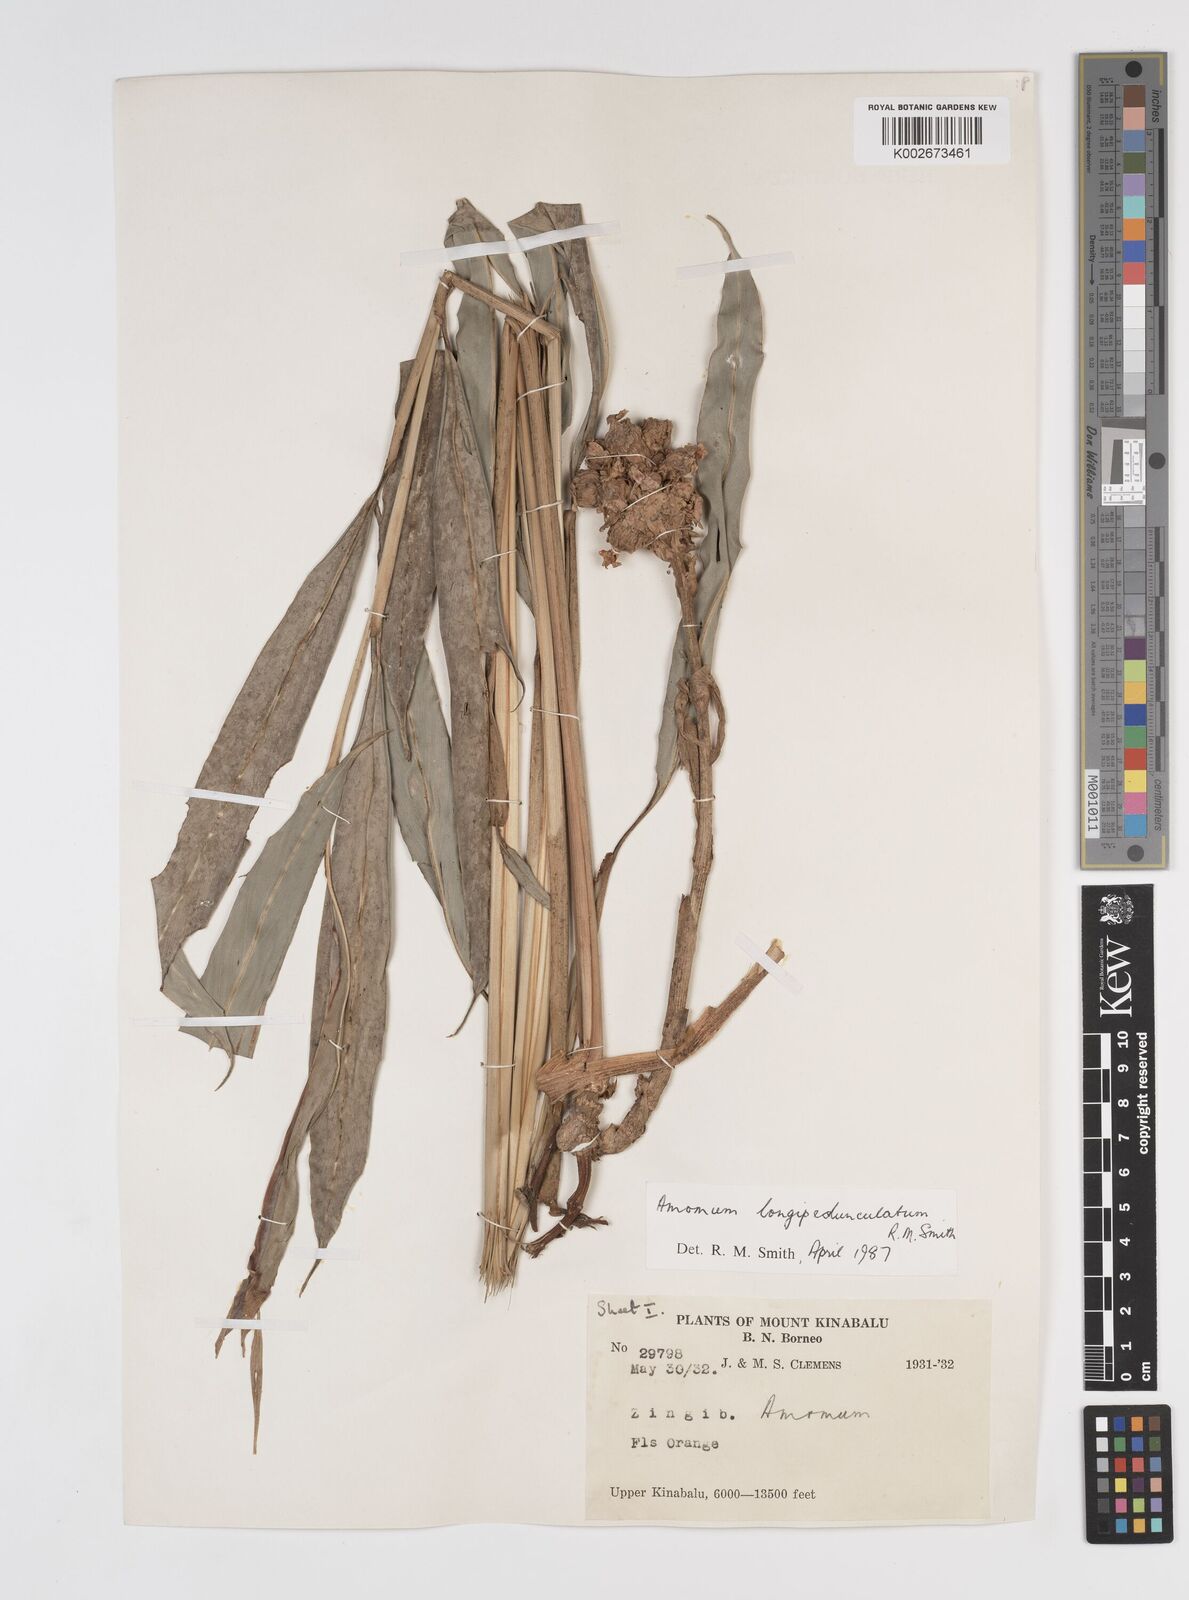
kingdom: Plantae
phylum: Tracheophyta
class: Liliopsida
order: Zingiberales
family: Zingiberaceae
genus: Sundamomum
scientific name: Sundamomum longipedunculatum
